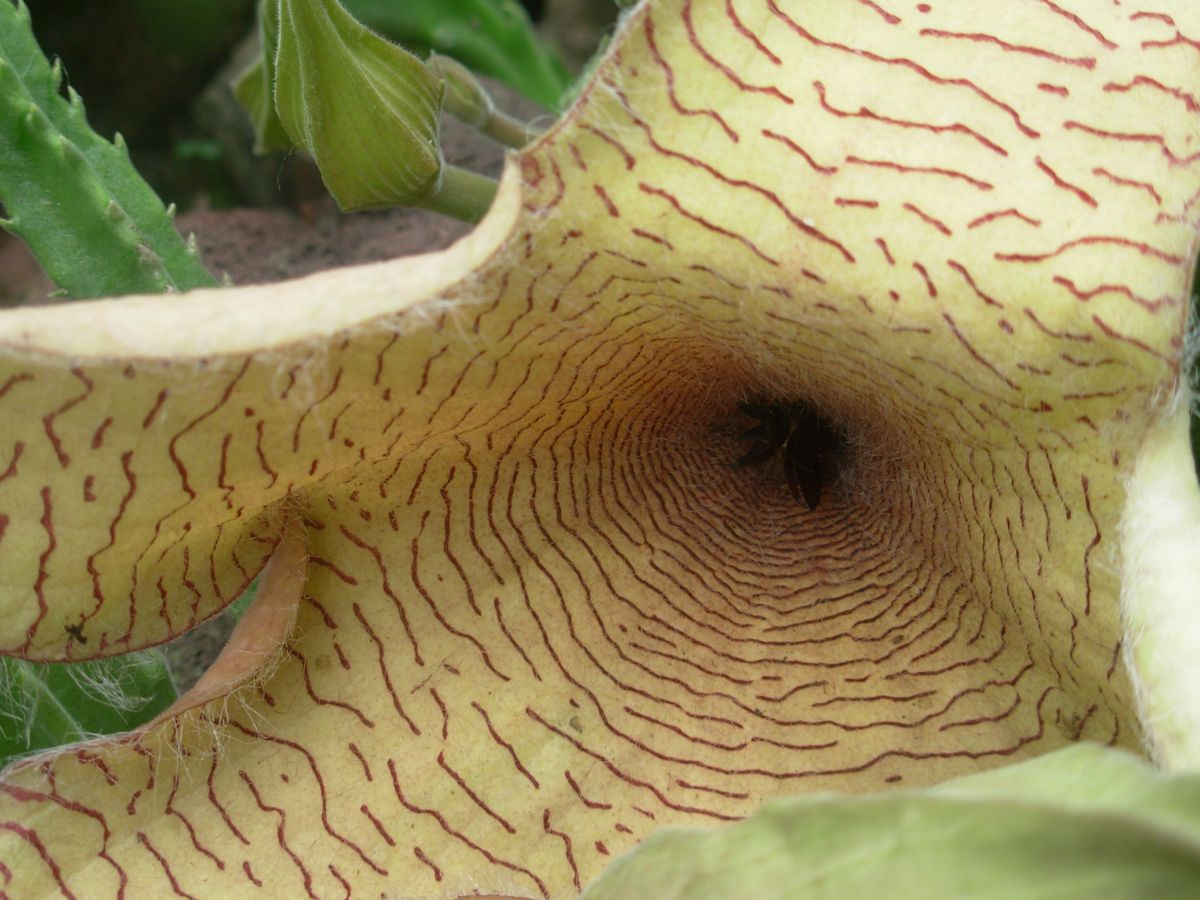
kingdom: Plantae
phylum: Tracheophyta
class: Magnoliopsida
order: Gentianales
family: Apocynaceae
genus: Ceropegia
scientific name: Ceropegia gigantea
